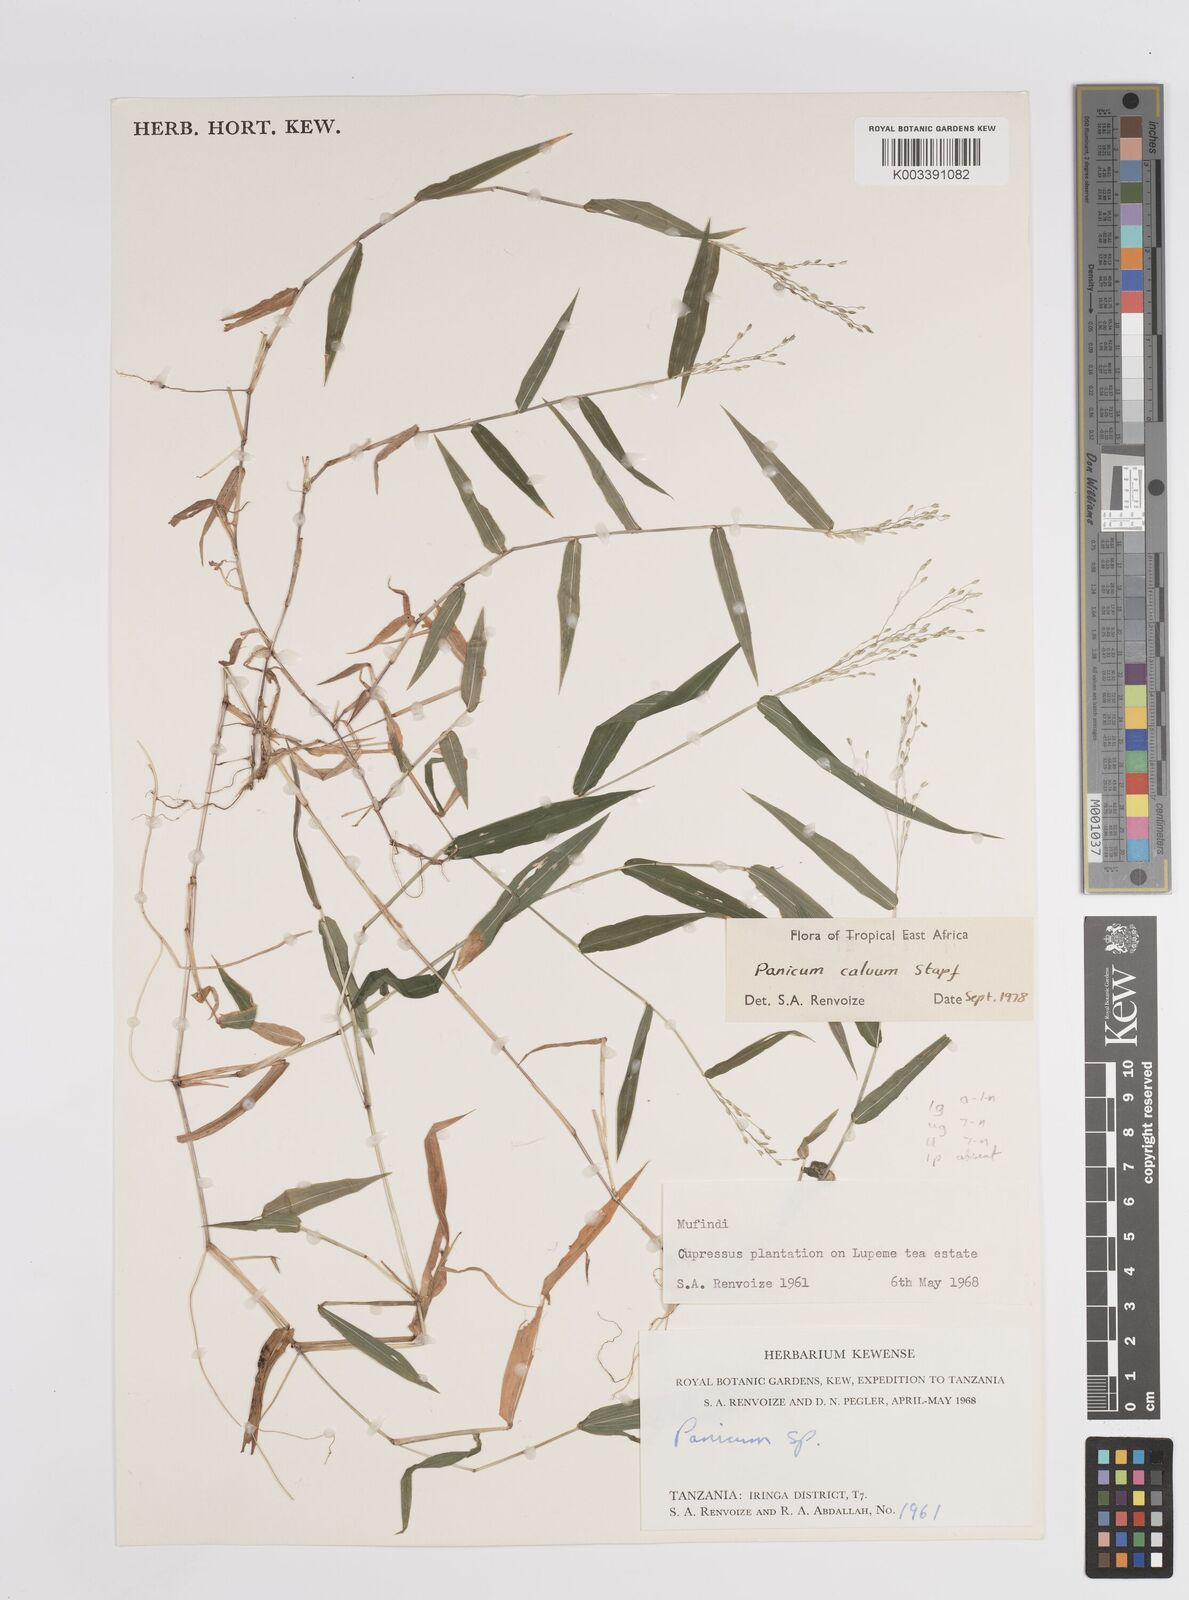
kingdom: Plantae
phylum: Tracheophyta
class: Liliopsida
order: Poales
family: Poaceae
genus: Panicum
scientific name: Panicum calvum
